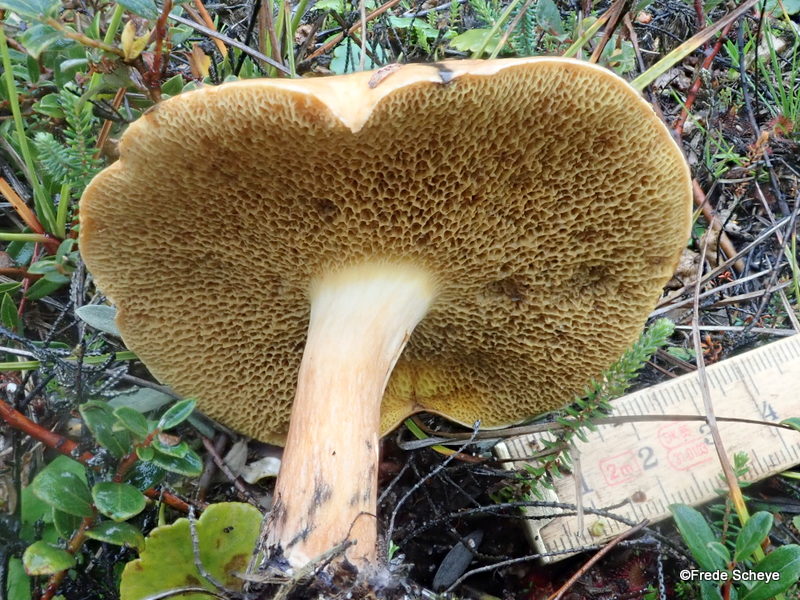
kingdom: Fungi
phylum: Basidiomycota
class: Agaricomycetes
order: Boletales
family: Suillaceae
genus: Suillus
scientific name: Suillus bovinus
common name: grovporet slimrørhat
